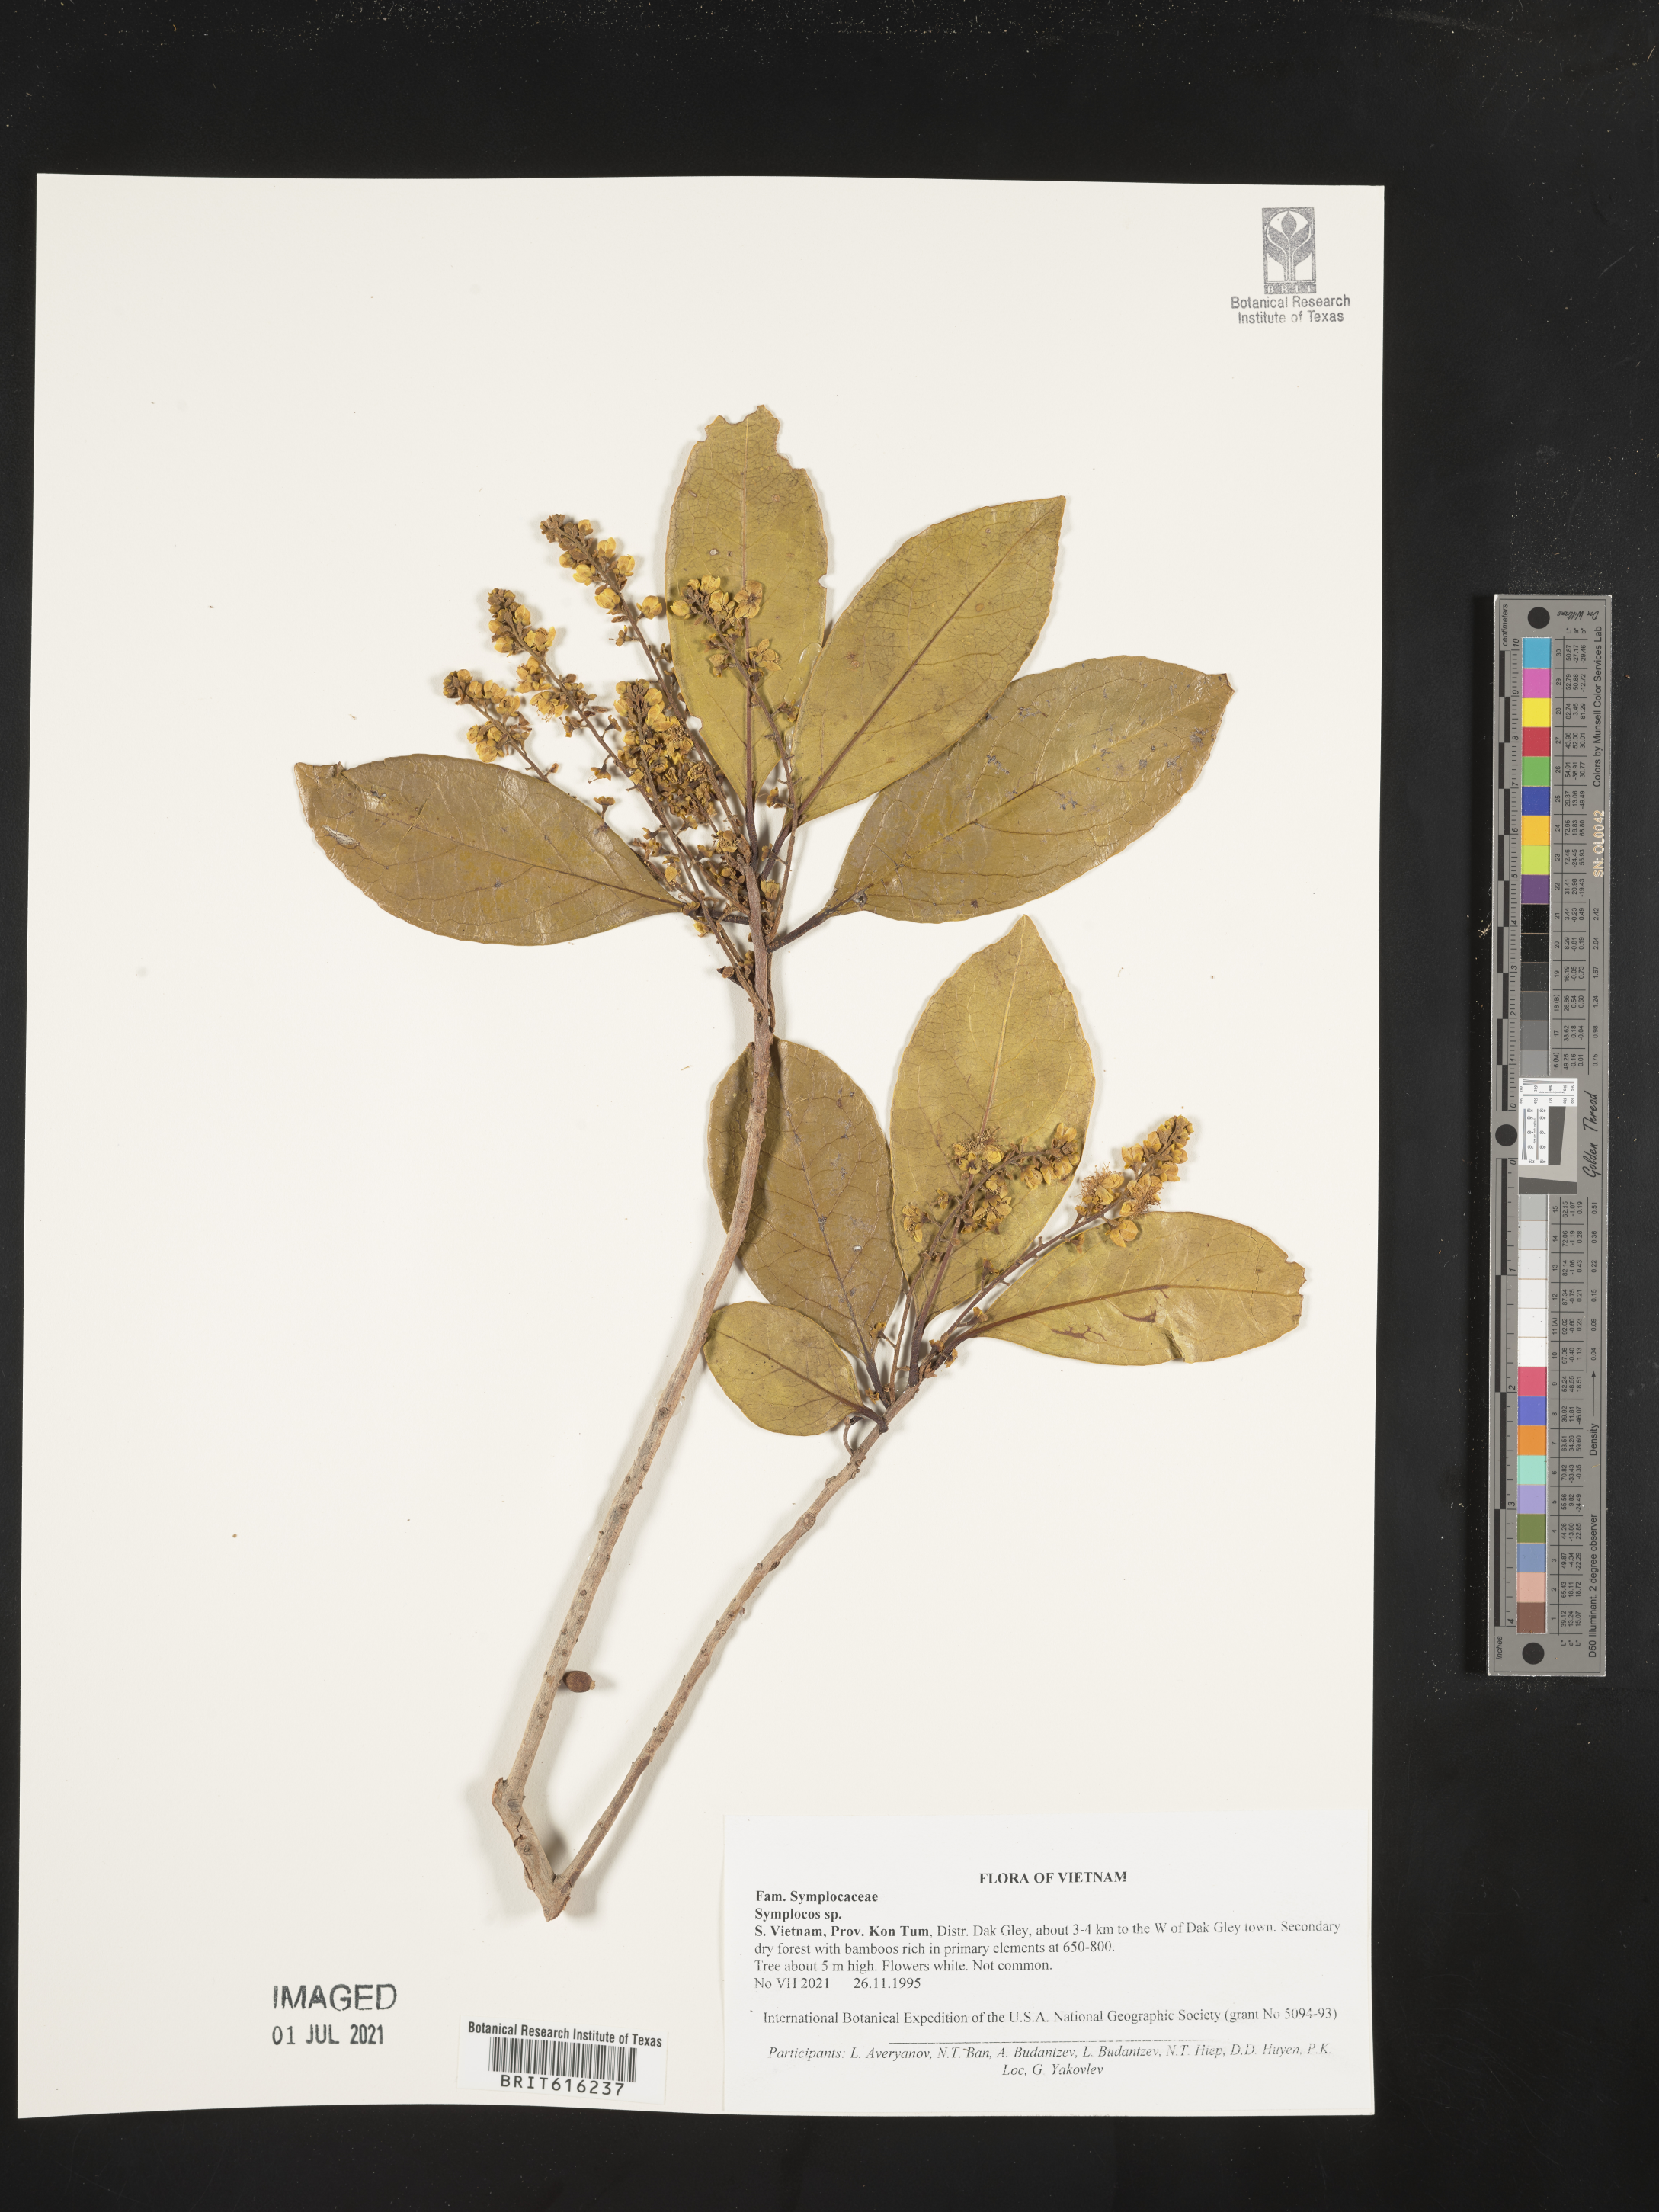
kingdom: Plantae
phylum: Tracheophyta
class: Magnoliopsida
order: Ericales
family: Symplocaceae
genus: Symplocos
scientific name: Symplocos
